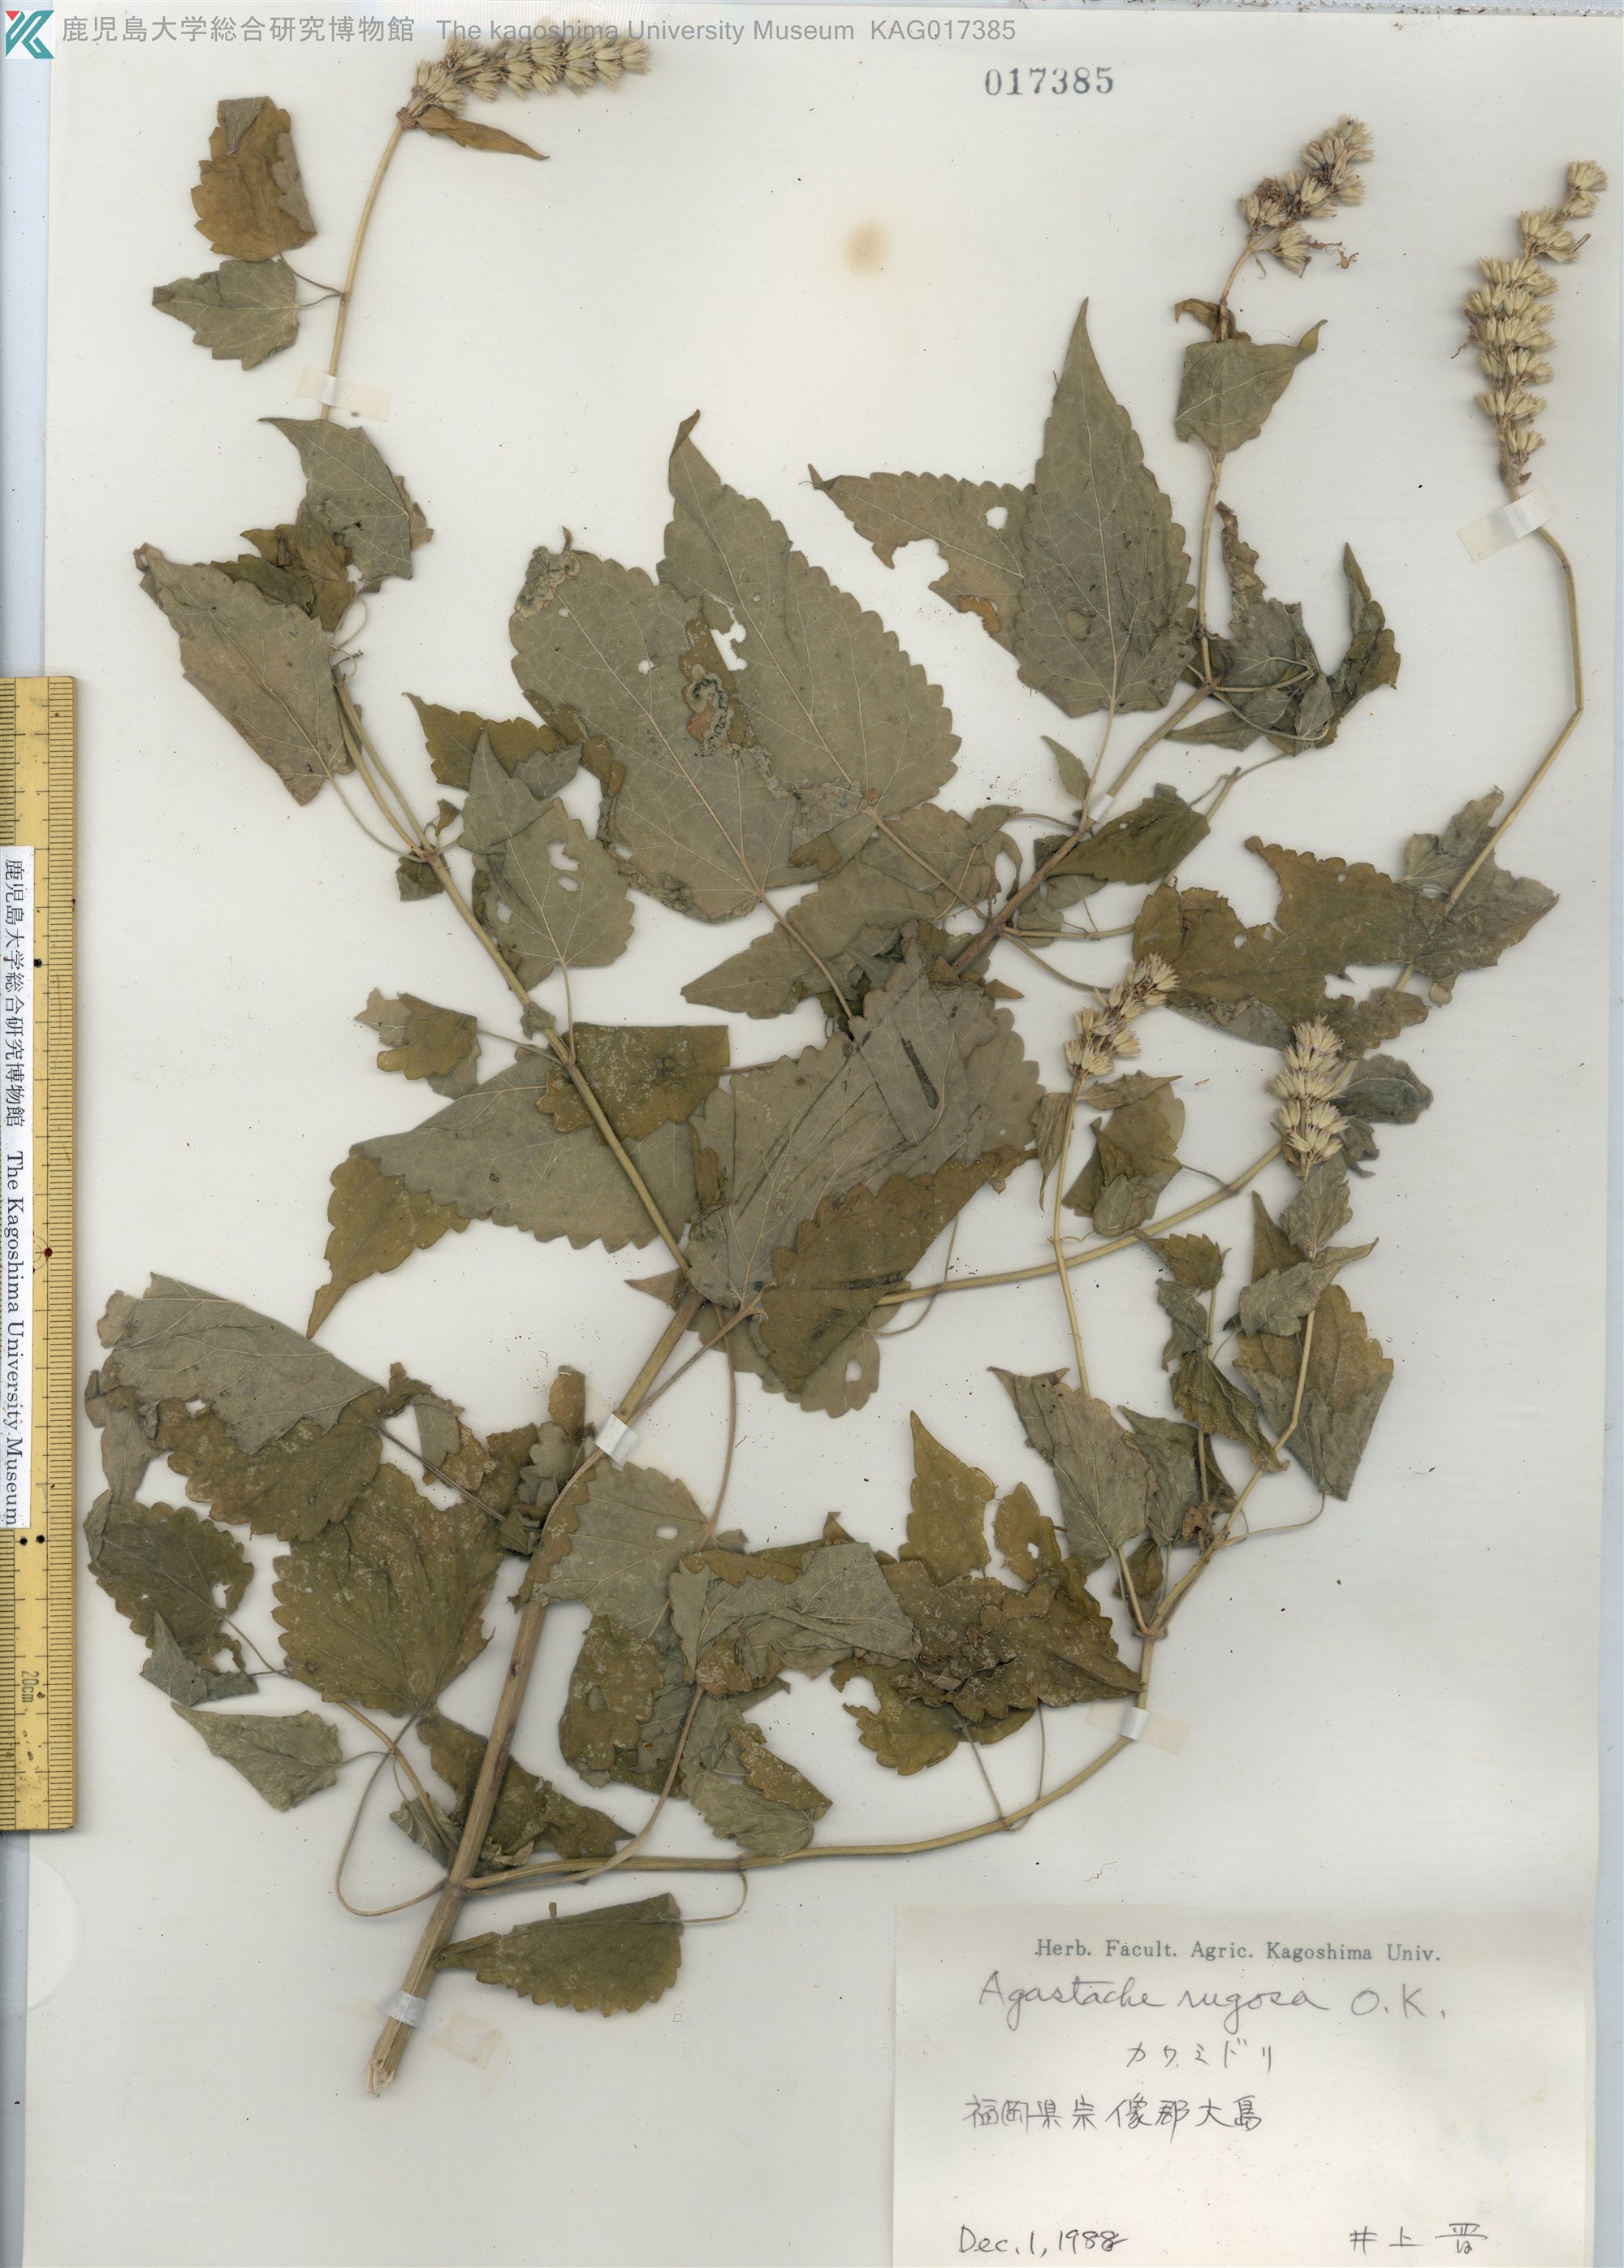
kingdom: Plantae
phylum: Tracheophyta
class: Magnoliopsida
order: Lamiales
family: Lamiaceae
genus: Agastache
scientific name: Agastache rugosa
